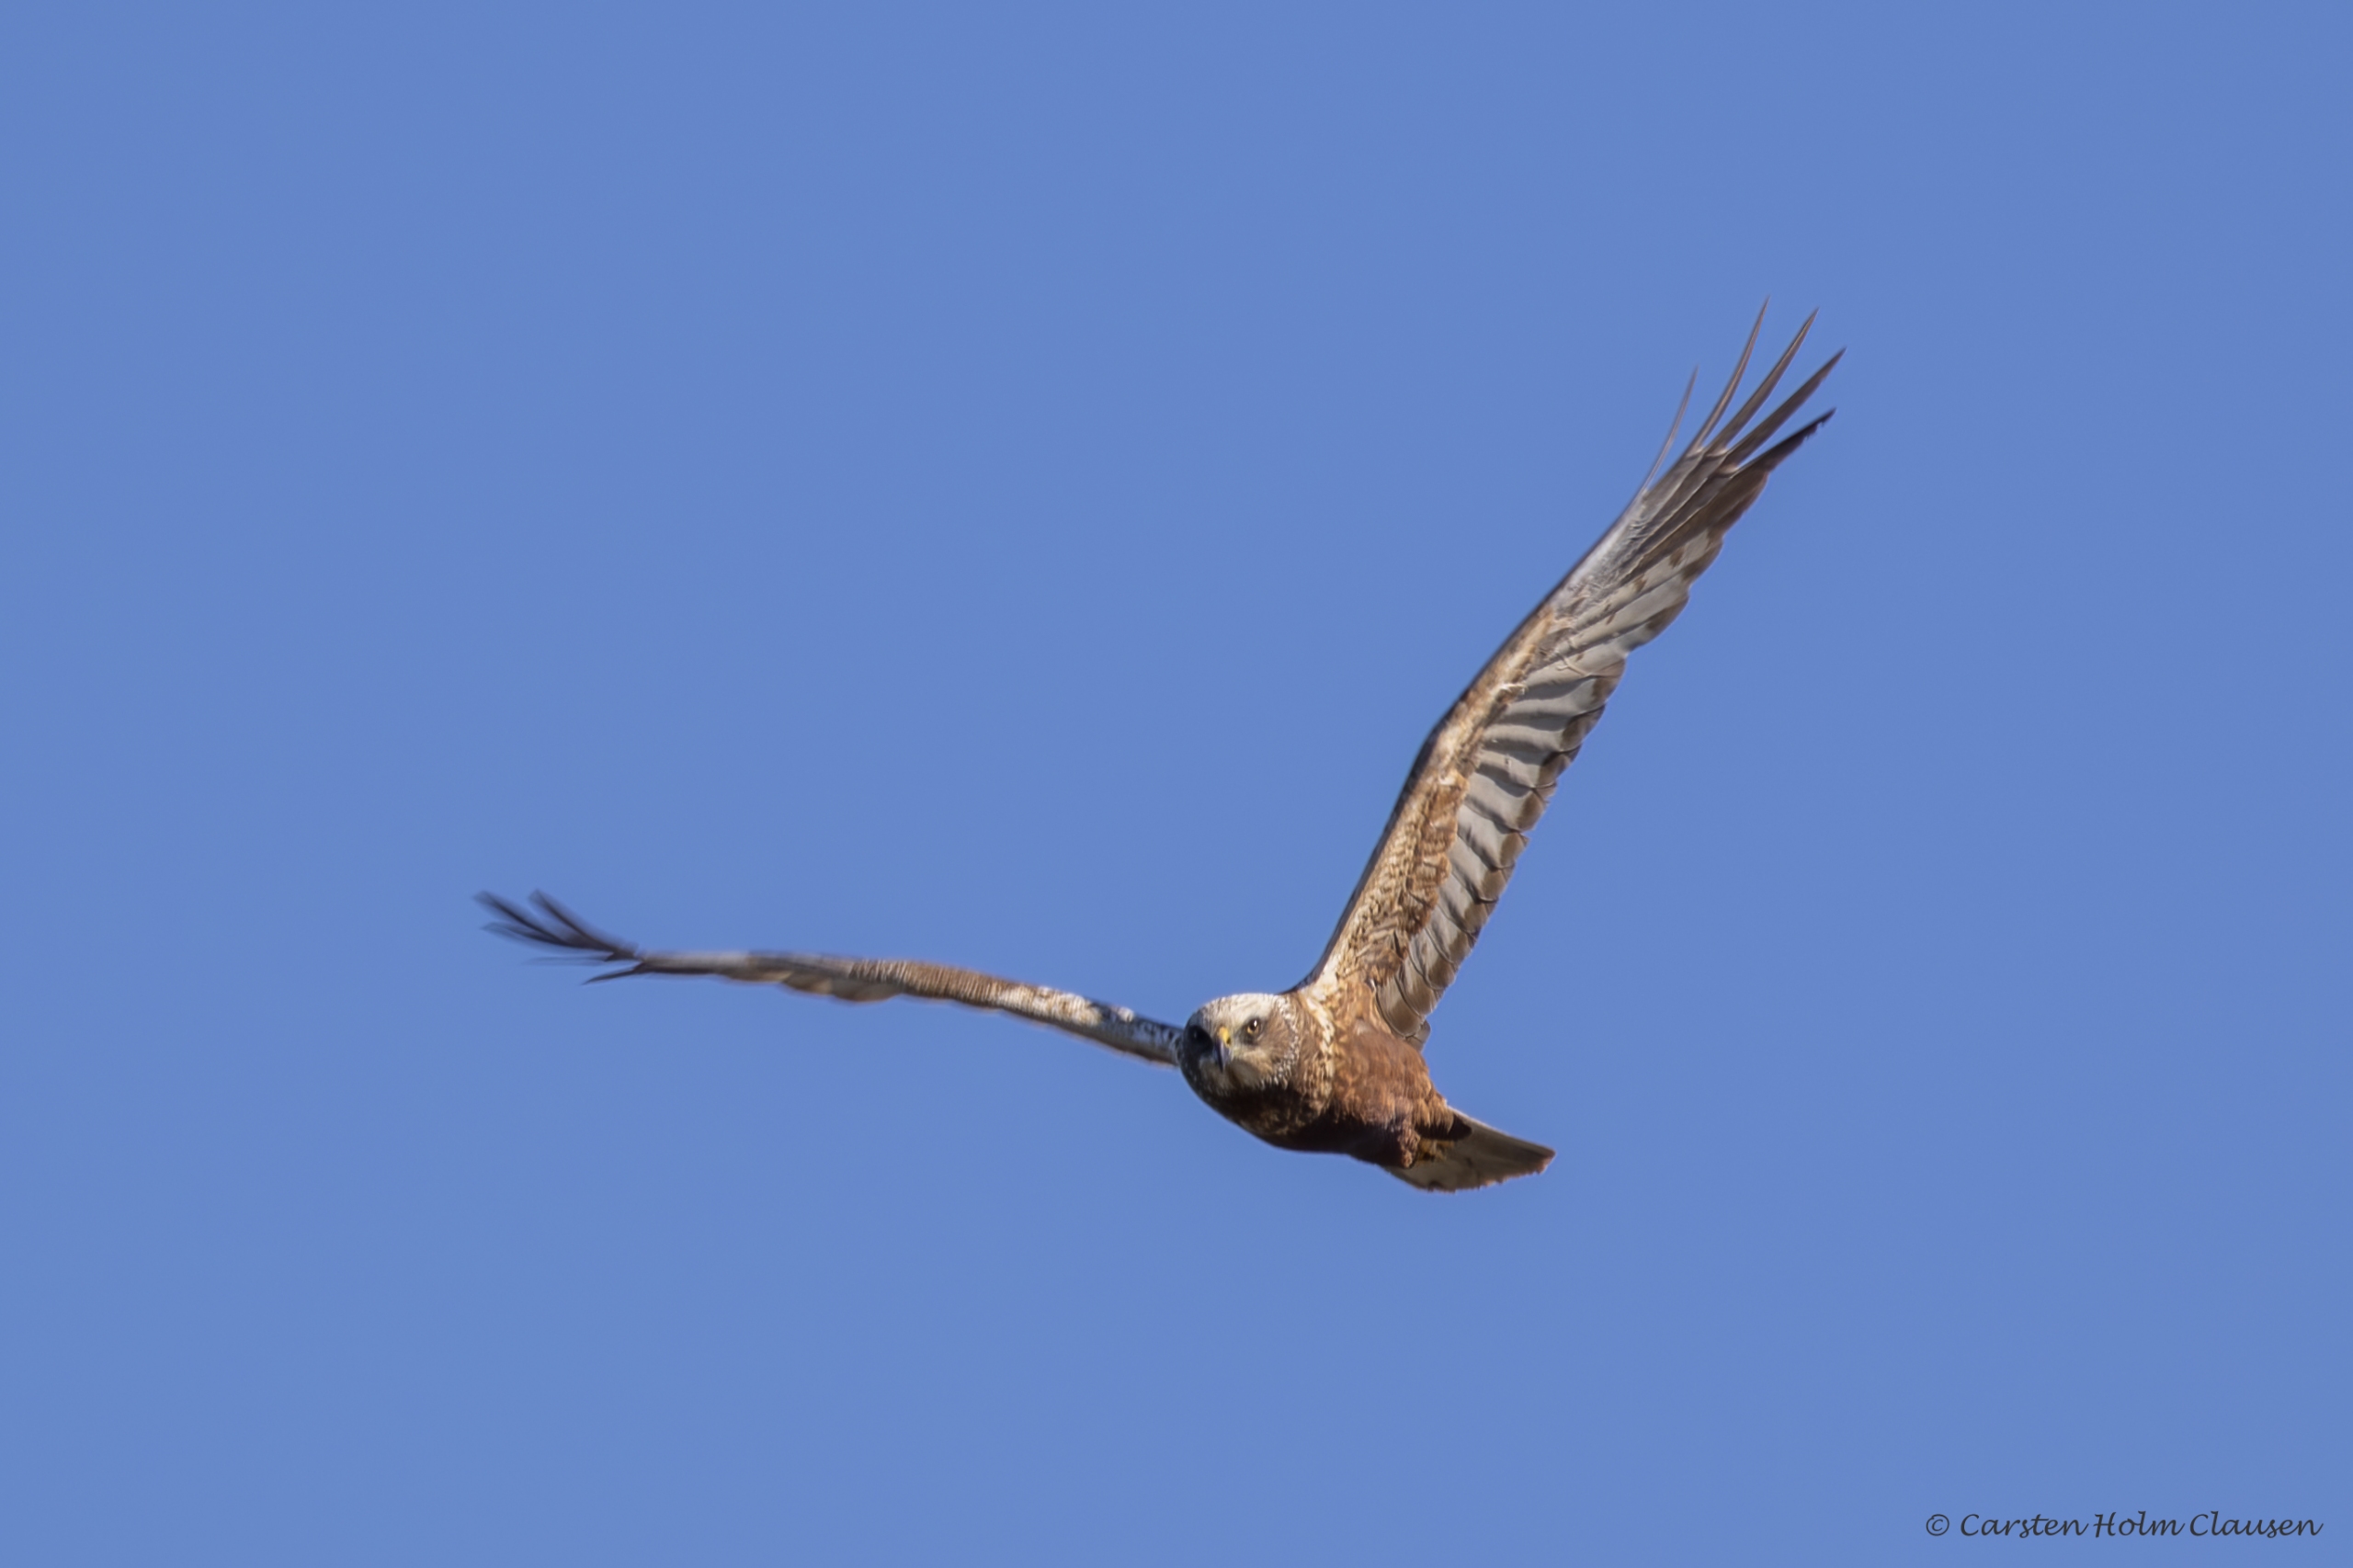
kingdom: Animalia
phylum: Chordata
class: Aves
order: Accipitriformes
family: Accipitridae
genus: Circus
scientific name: Circus aeruginosus
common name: Rørhøg
